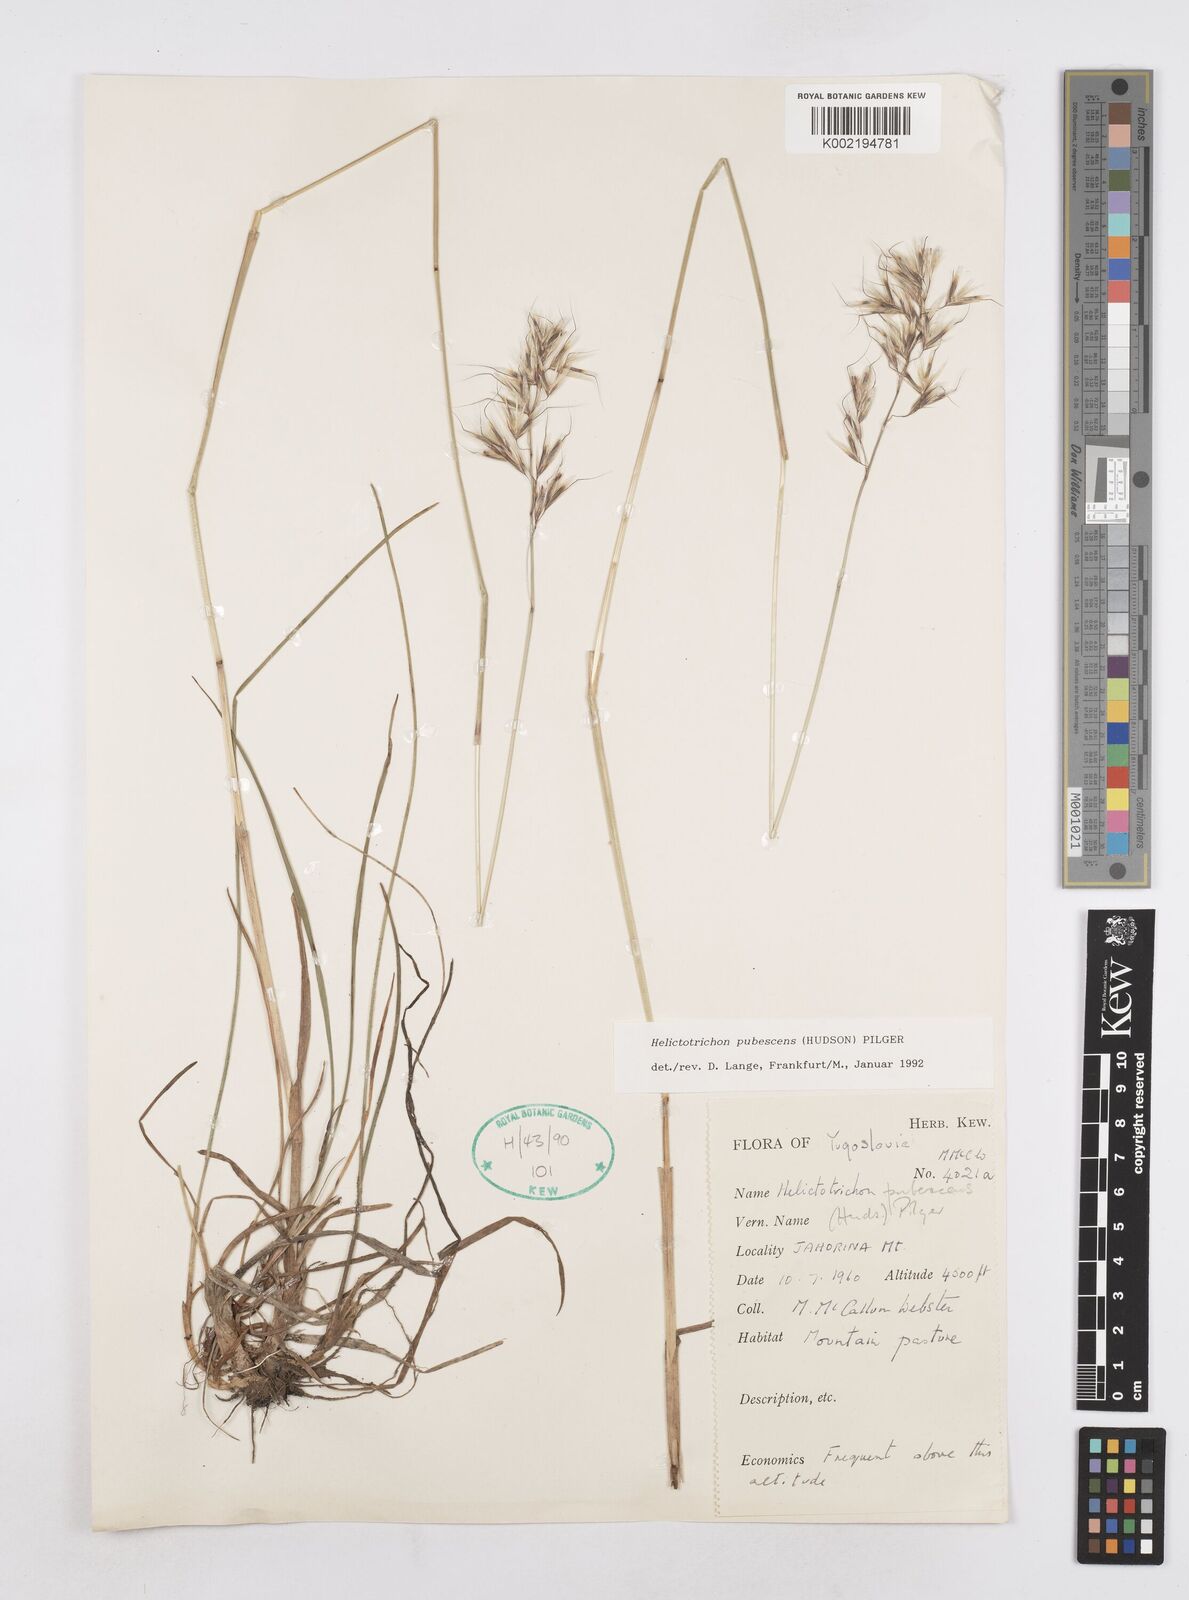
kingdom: Plantae
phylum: Tracheophyta
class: Liliopsida
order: Poales
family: Poaceae
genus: Avenula
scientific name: Avenula pubescens
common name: Downy alpine oatgrass
